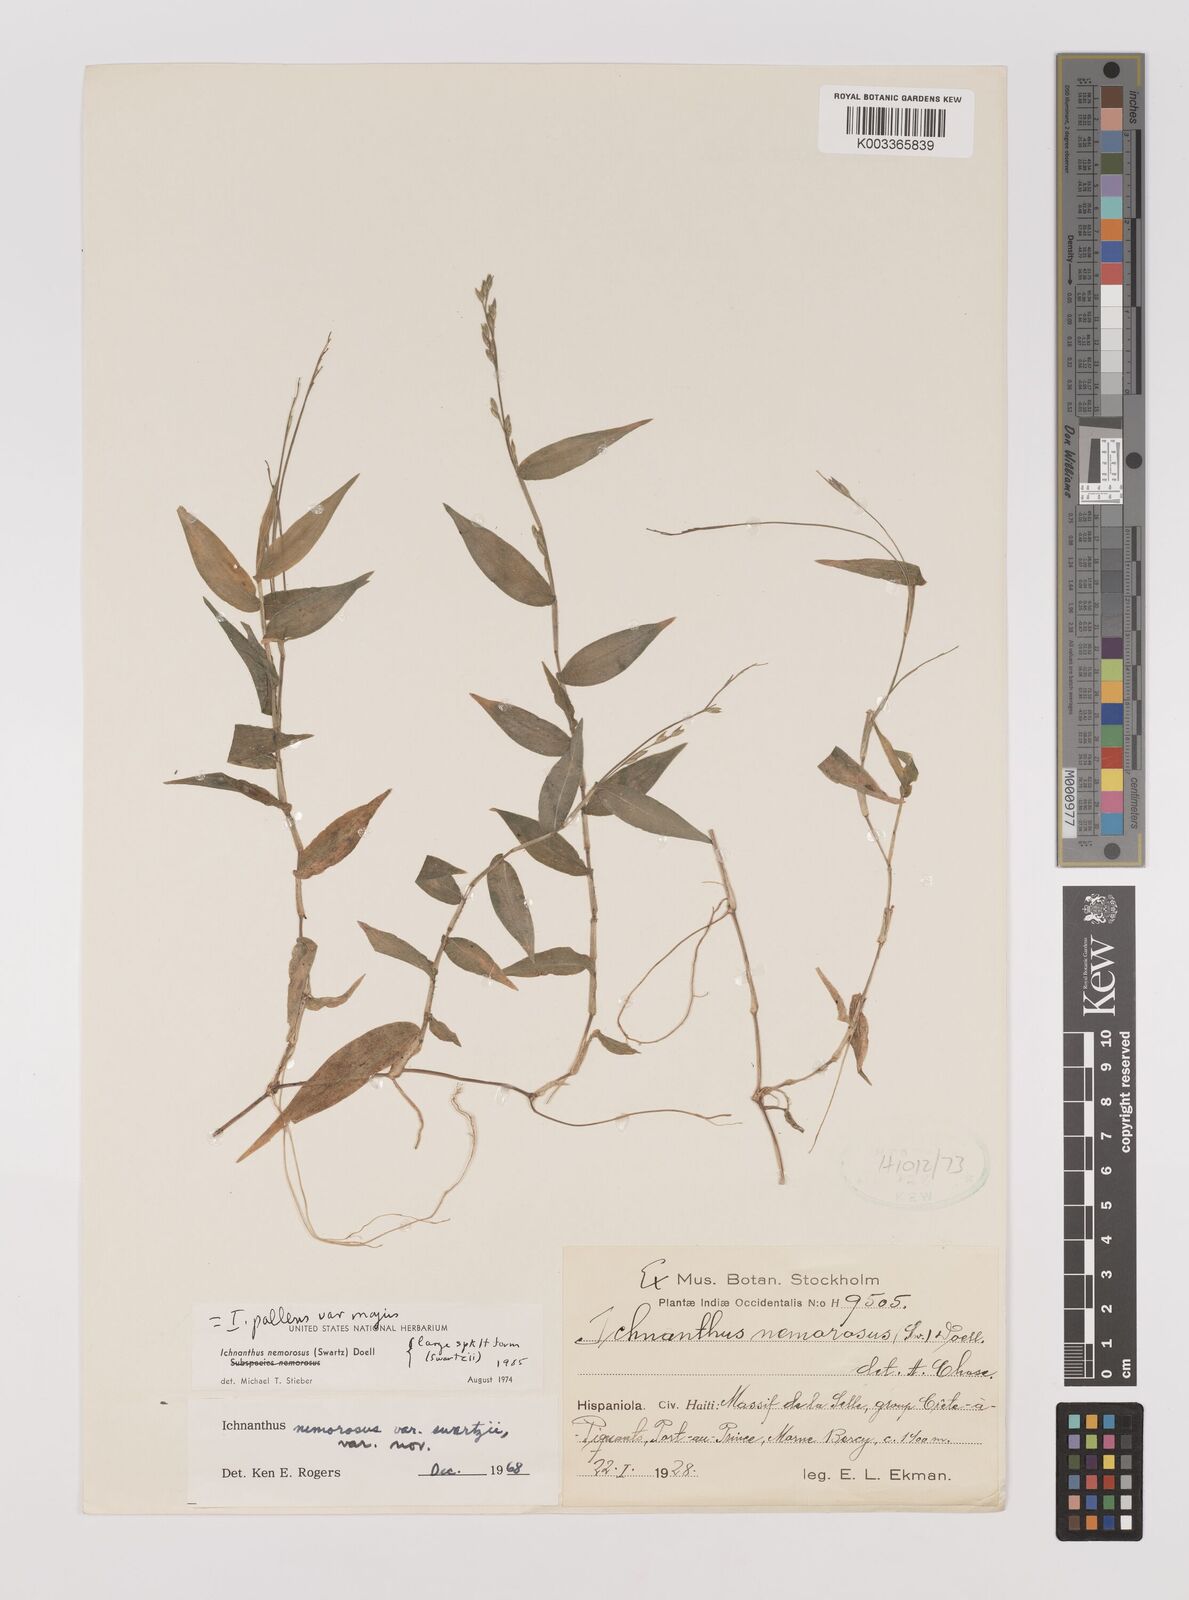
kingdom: Plantae
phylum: Tracheophyta
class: Liliopsida
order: Poales
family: Poaceae
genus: Ichnanthus
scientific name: Ichnanthus pallens
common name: Water grass
